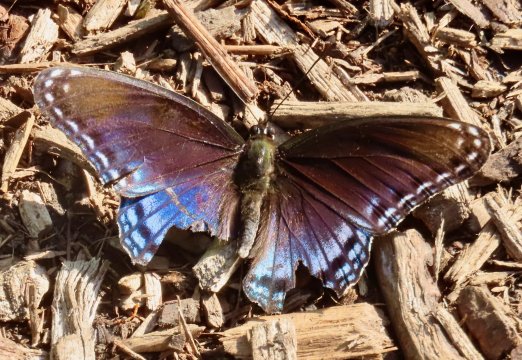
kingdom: Animalia
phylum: Arthropoda
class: Insecta
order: Lepidoptera
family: Nymphalidae
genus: Limenitis
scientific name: Limenitis arthemis
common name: Red-spotted Admiral
